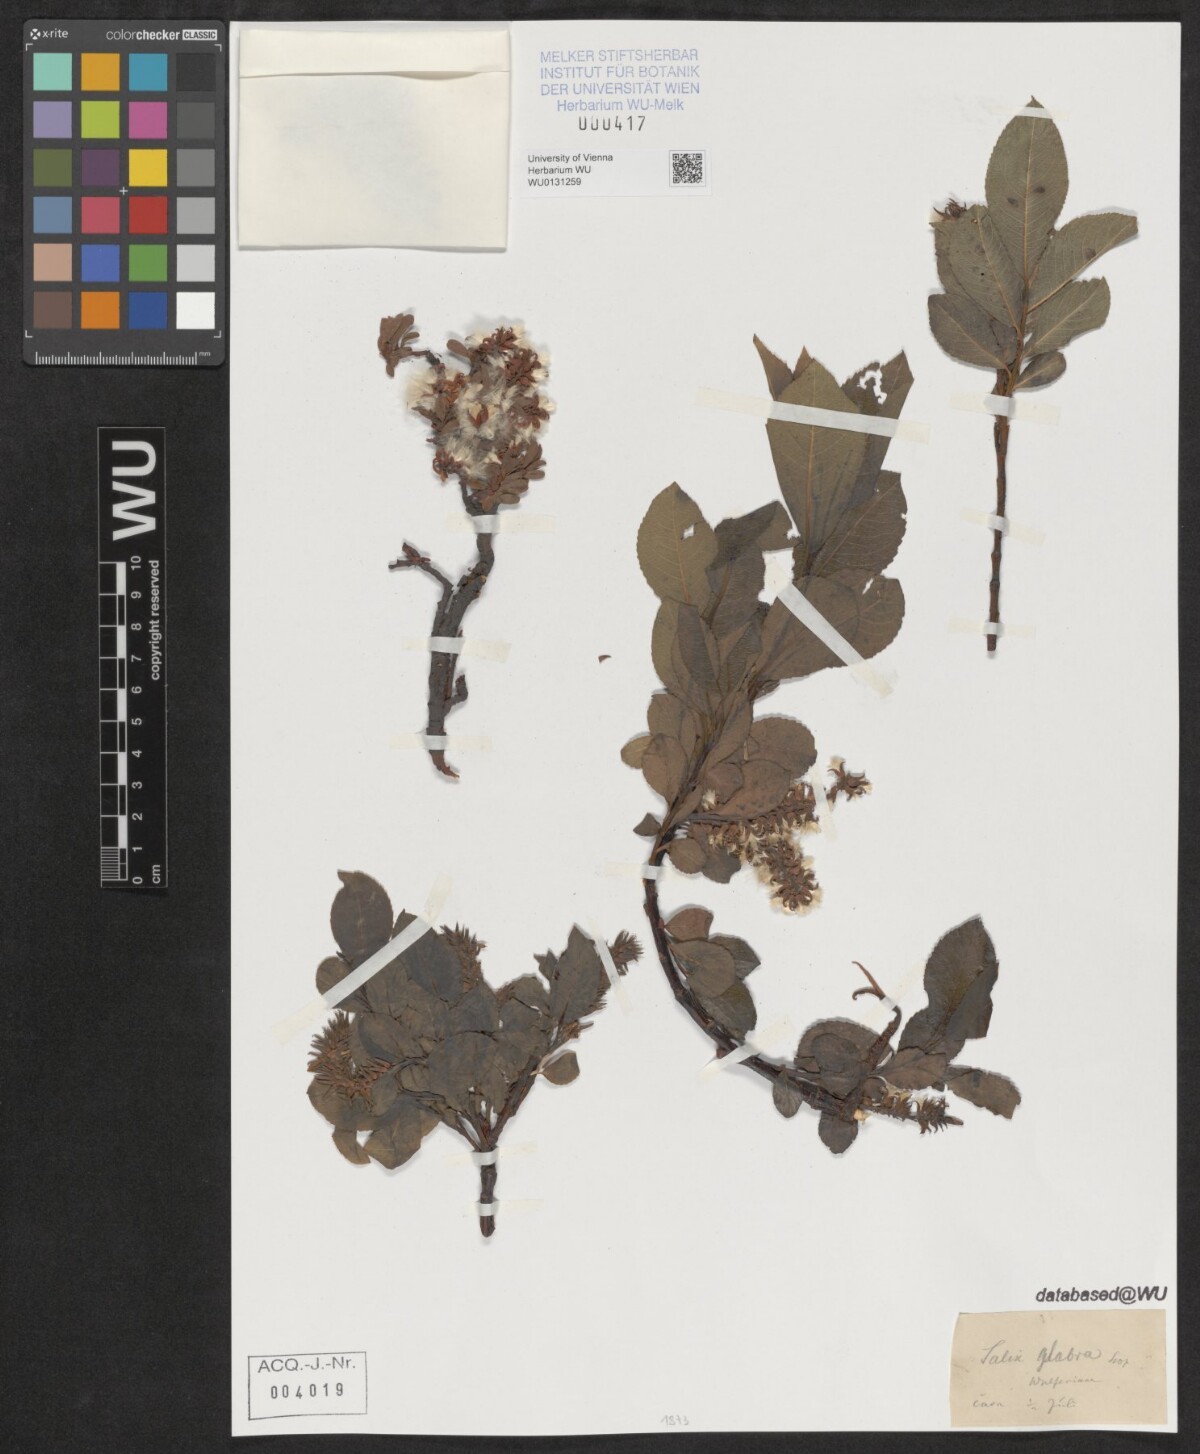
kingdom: Plantae
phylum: Tracheophyta
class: Magnoliopsida
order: Malpighiales
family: Salicaceae
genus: Salix
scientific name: Salix glabra
